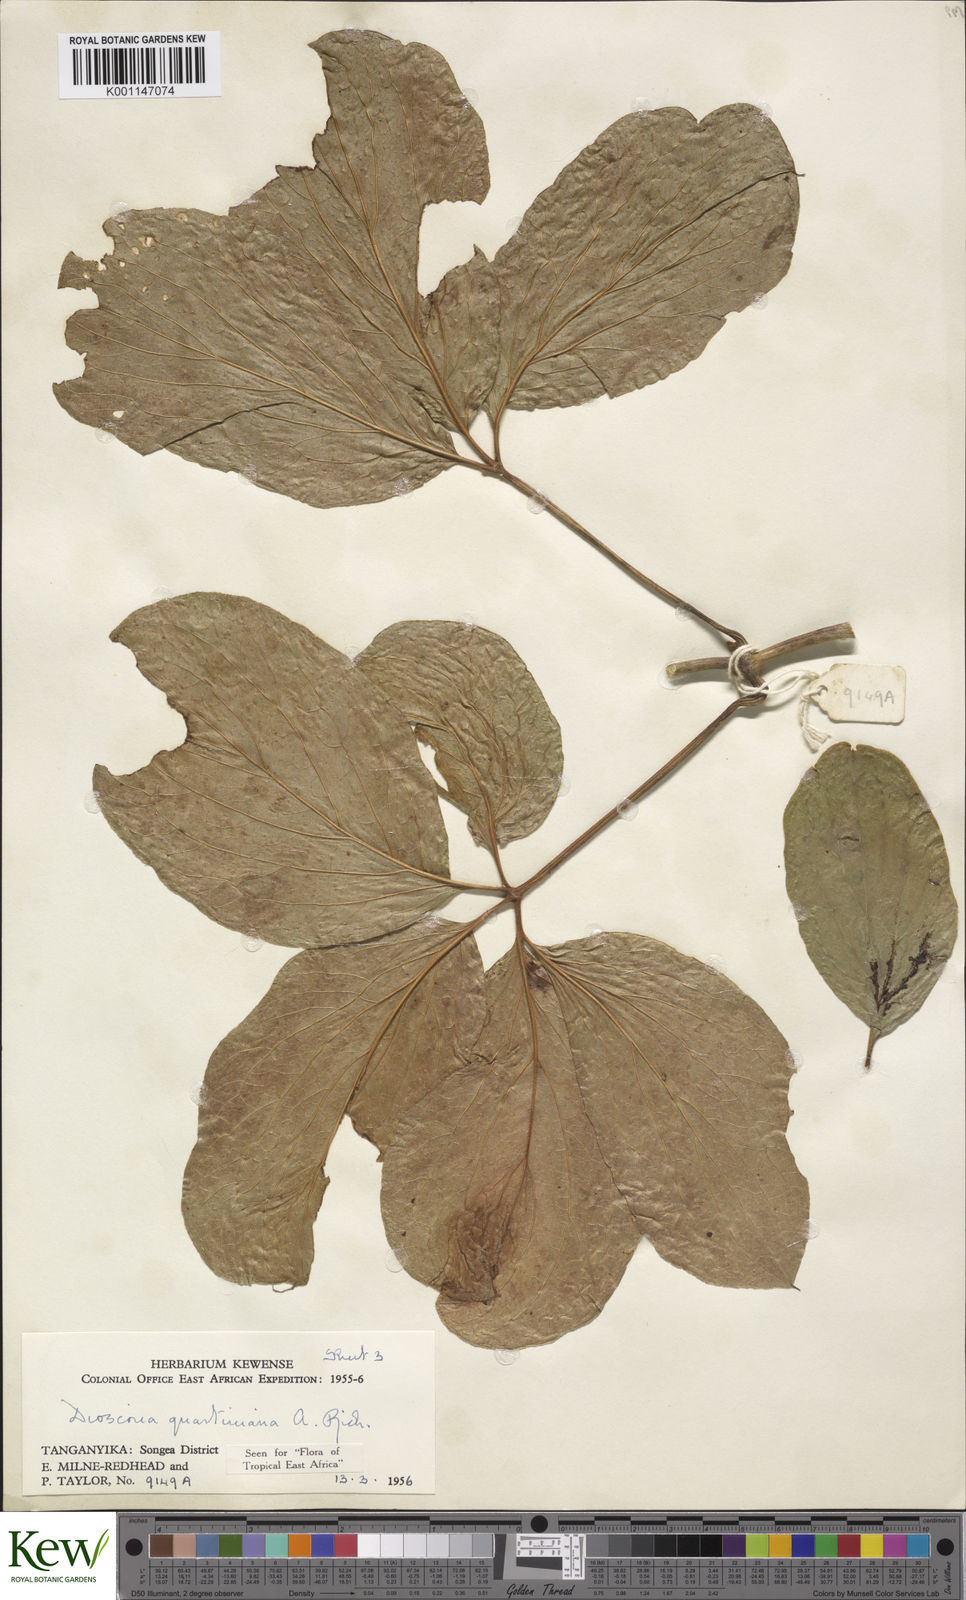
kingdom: Plantae
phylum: Tracheophyta
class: Liliopsida
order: Dioscoreales
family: Dioscoreaceae
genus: Dioscorea
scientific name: Dioscorea quartiniana
